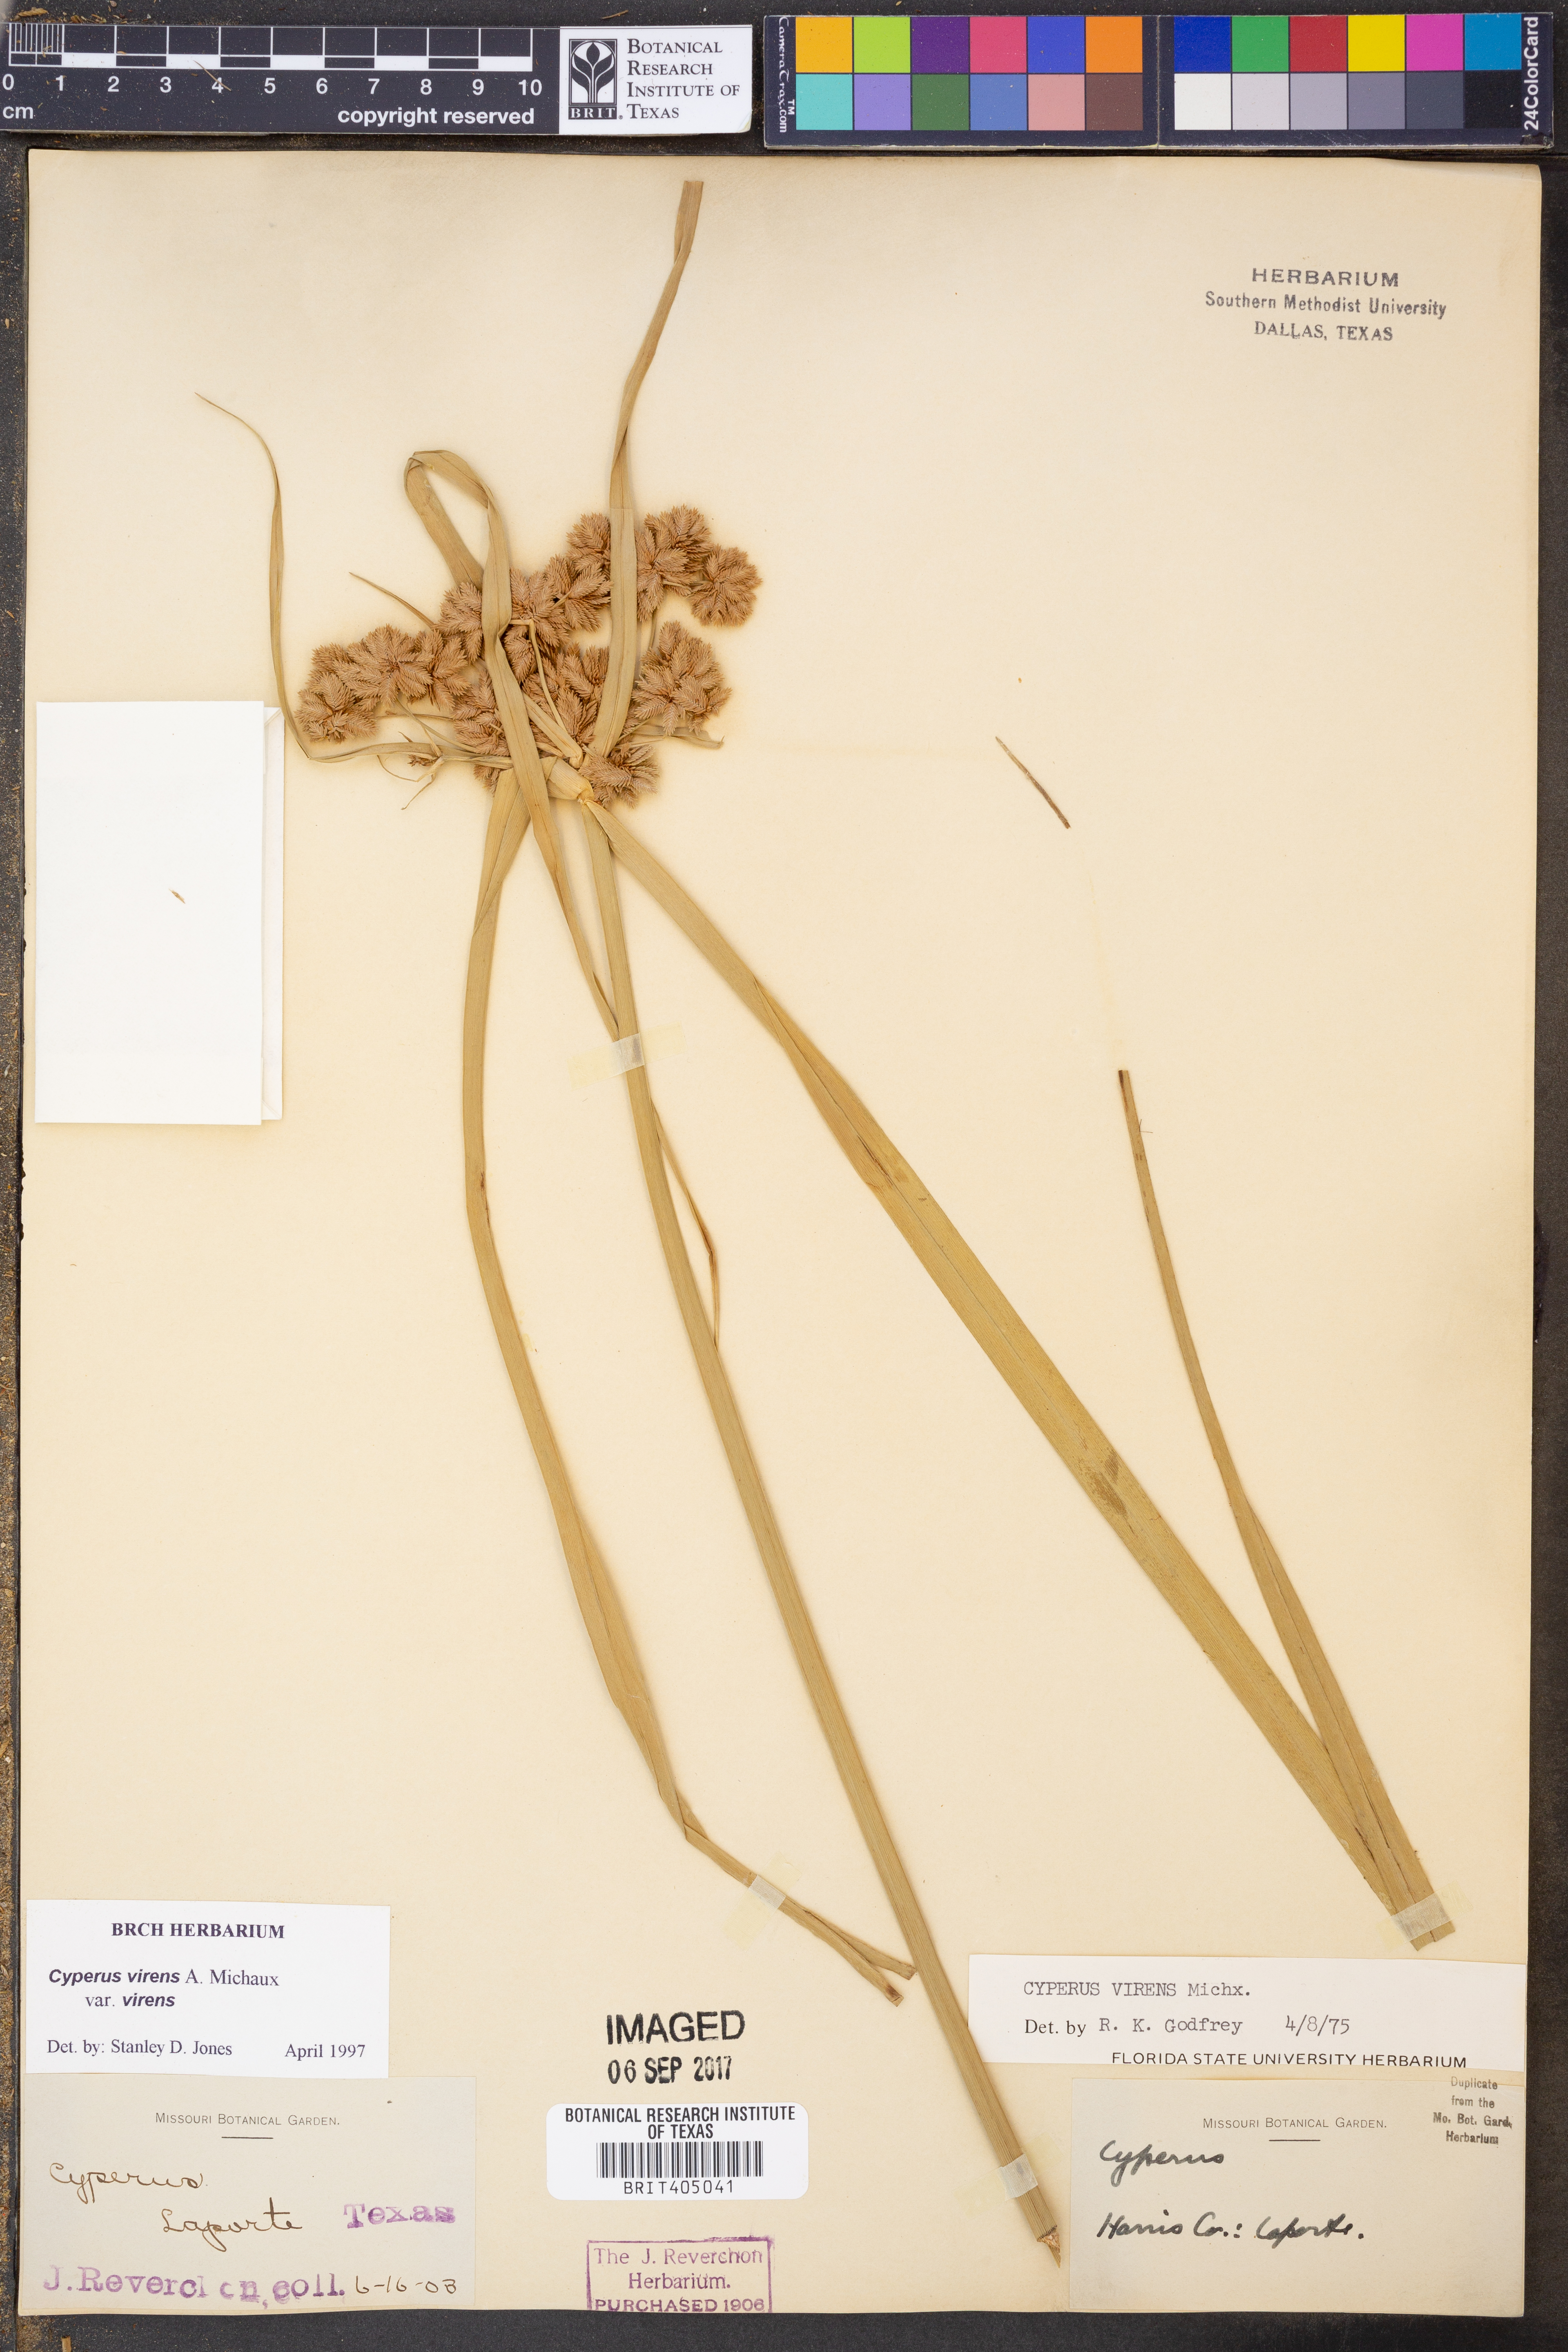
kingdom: Plantae
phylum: Tracheophyta
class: Liliopsida
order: Poales
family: Cyperaceae
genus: Cyperus
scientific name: Cyperus virens
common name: Green flatsedge
